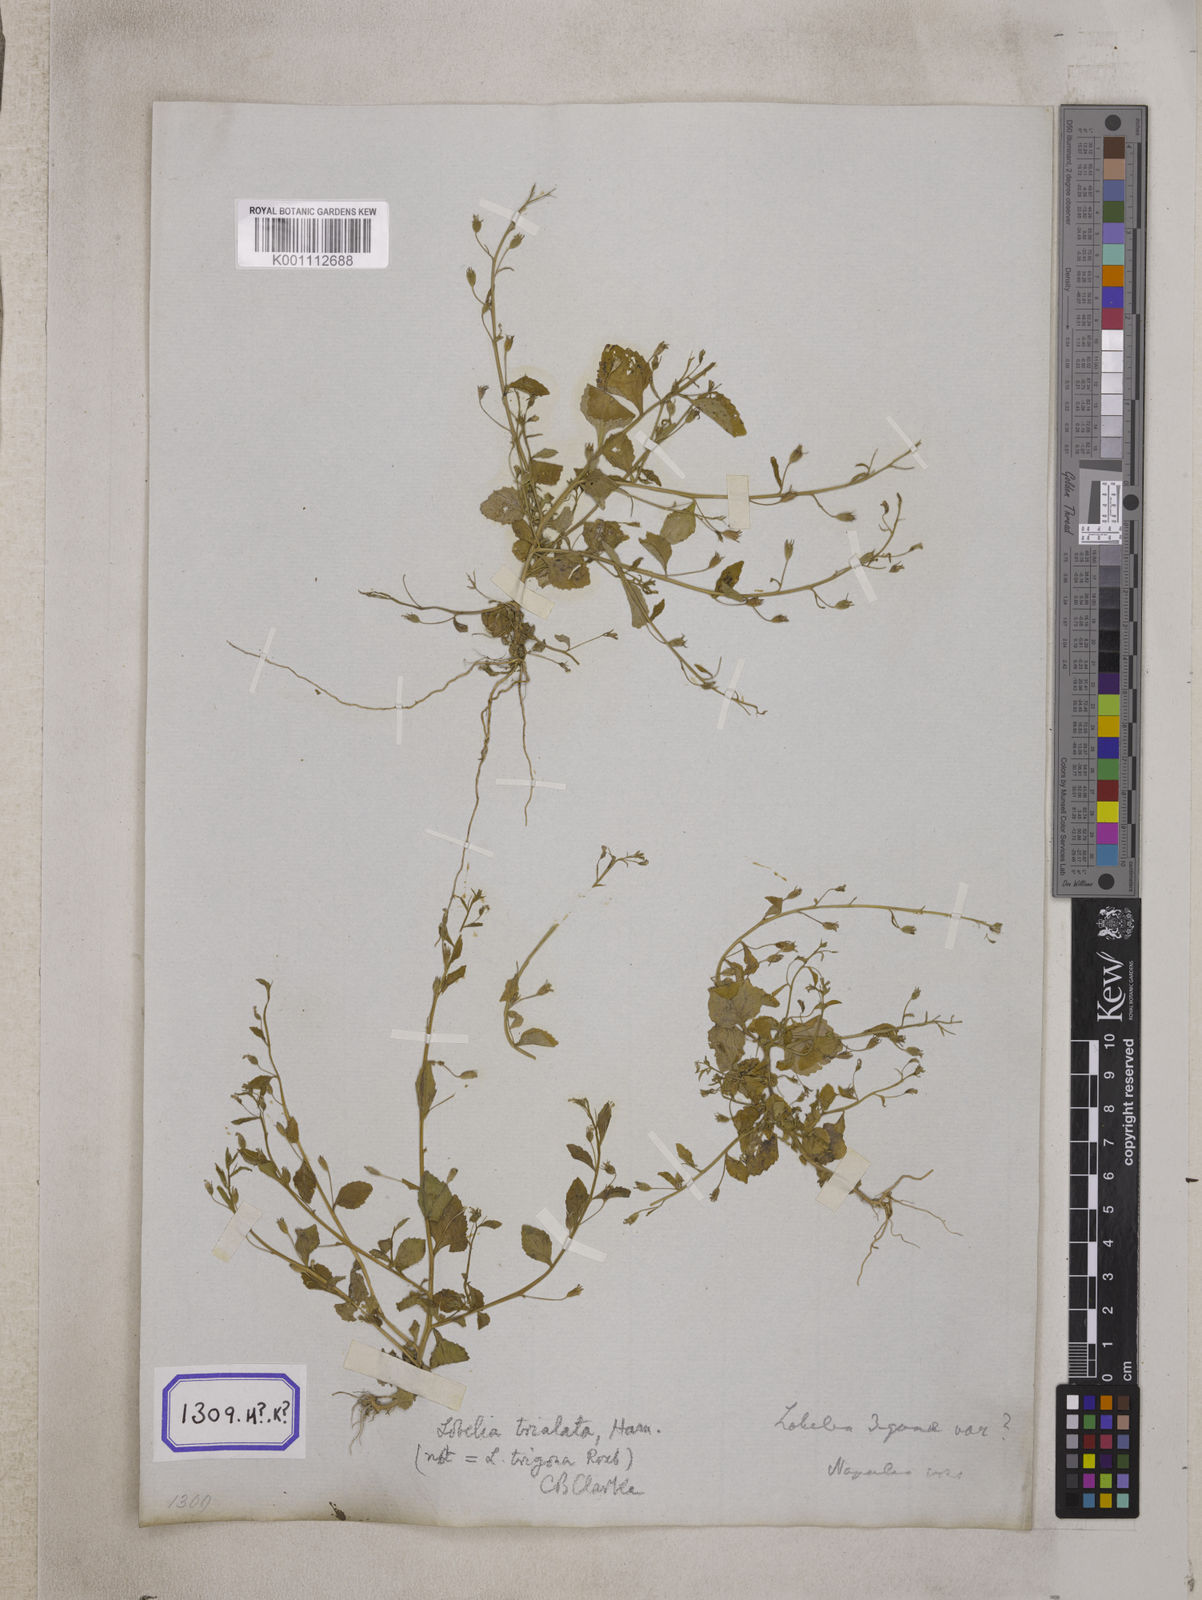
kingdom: Plantae
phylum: Tracheophyta
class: Magnoliopsida
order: Asterales
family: Campanulaceae
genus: Lobelia
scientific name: Lobelia alsinoides
